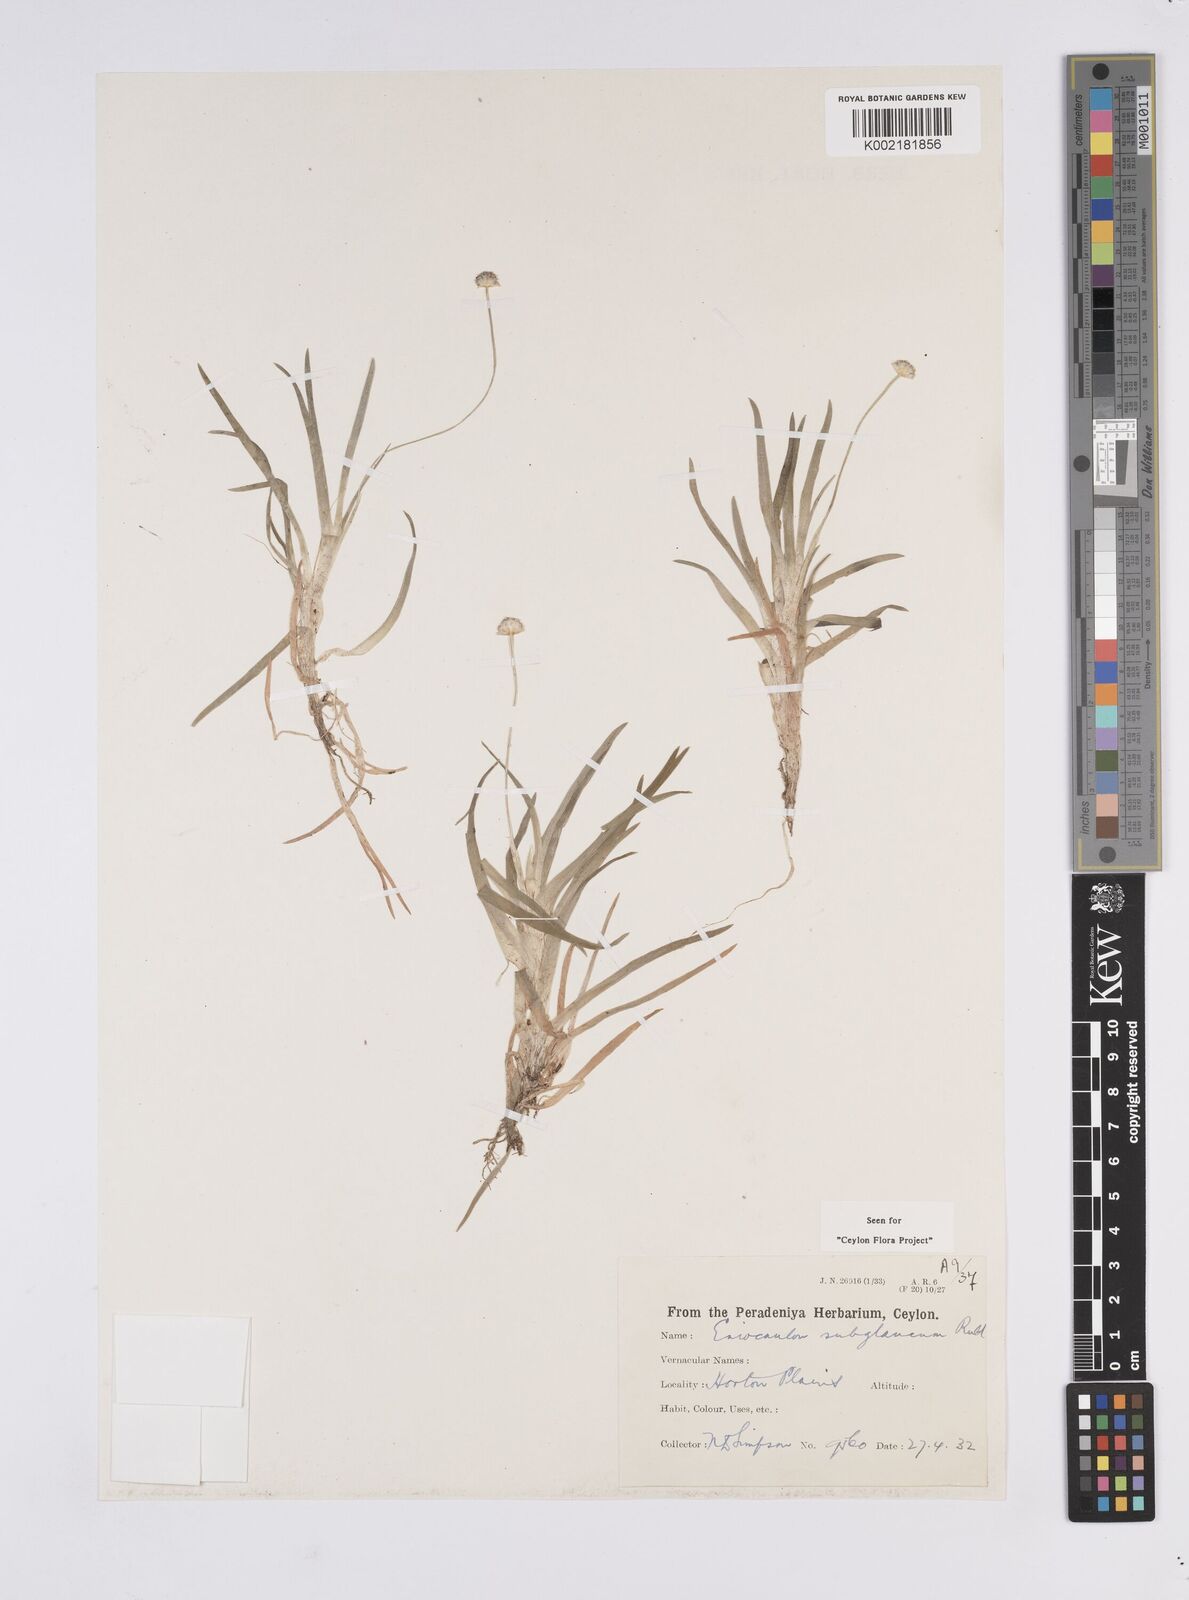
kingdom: Plantae
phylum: Tracheophyta
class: Liliopsida
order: Poales
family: Eriocaulaceae
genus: Eriocaulon
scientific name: Eriocaulon subglaucum
